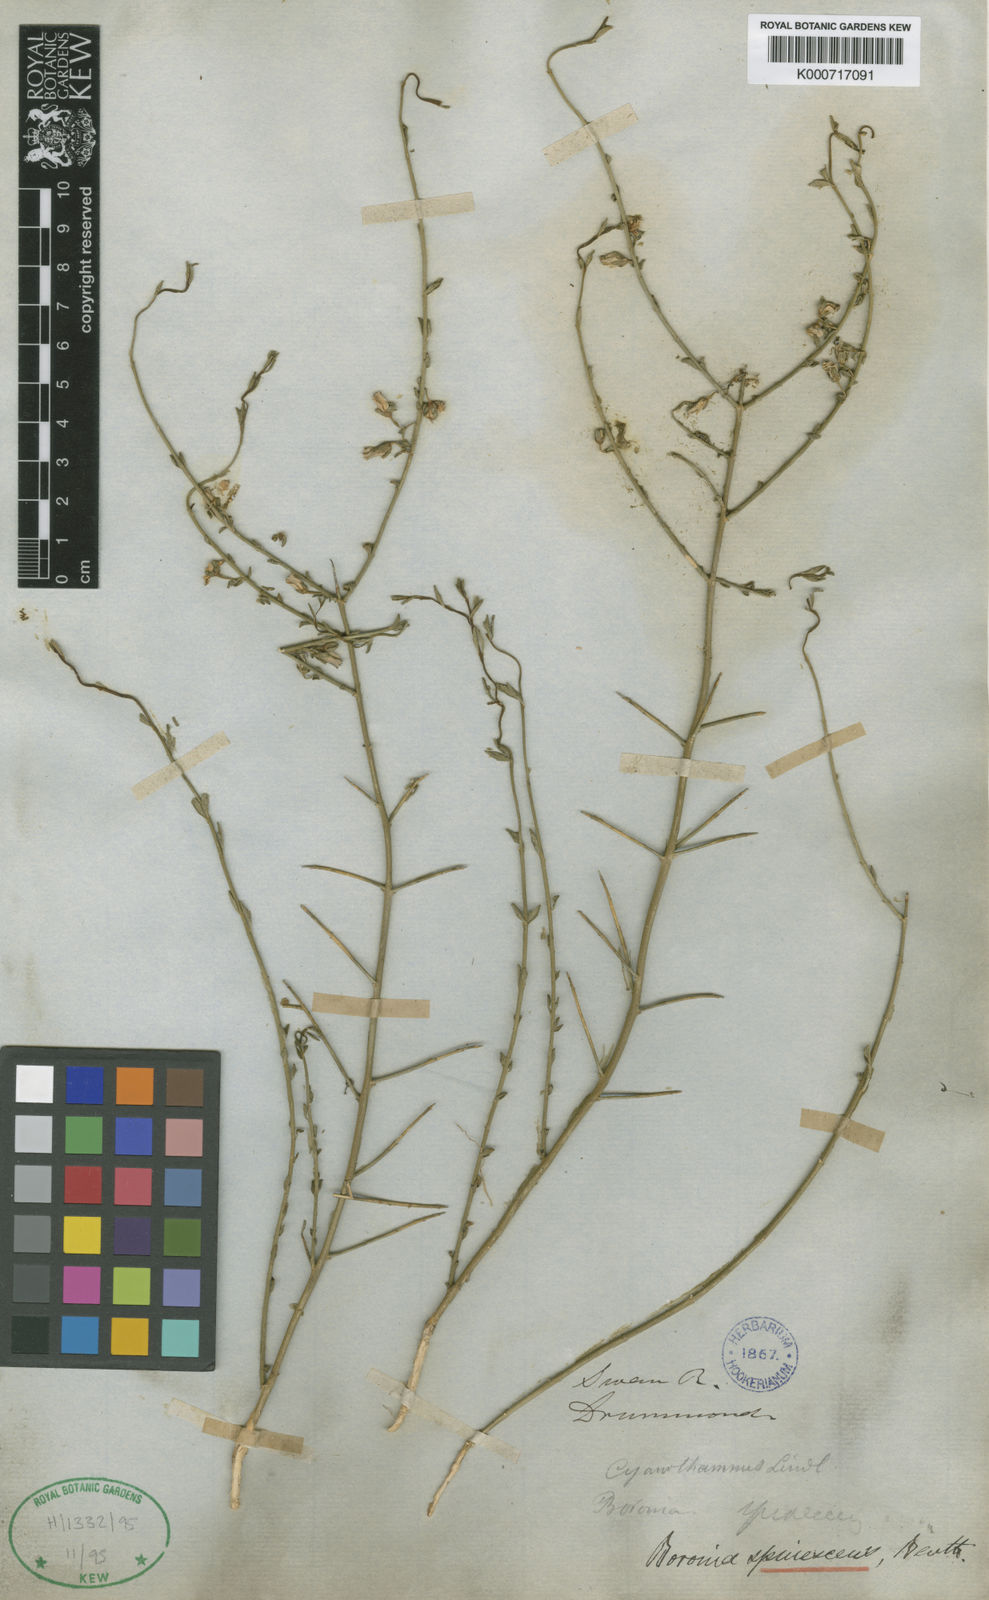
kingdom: Plantae
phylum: Tracheophyta
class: Magnoliopsida
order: Sapindales
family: Rutaceae
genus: Cyanothamnus
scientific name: Cyanothamnus coerulescens
